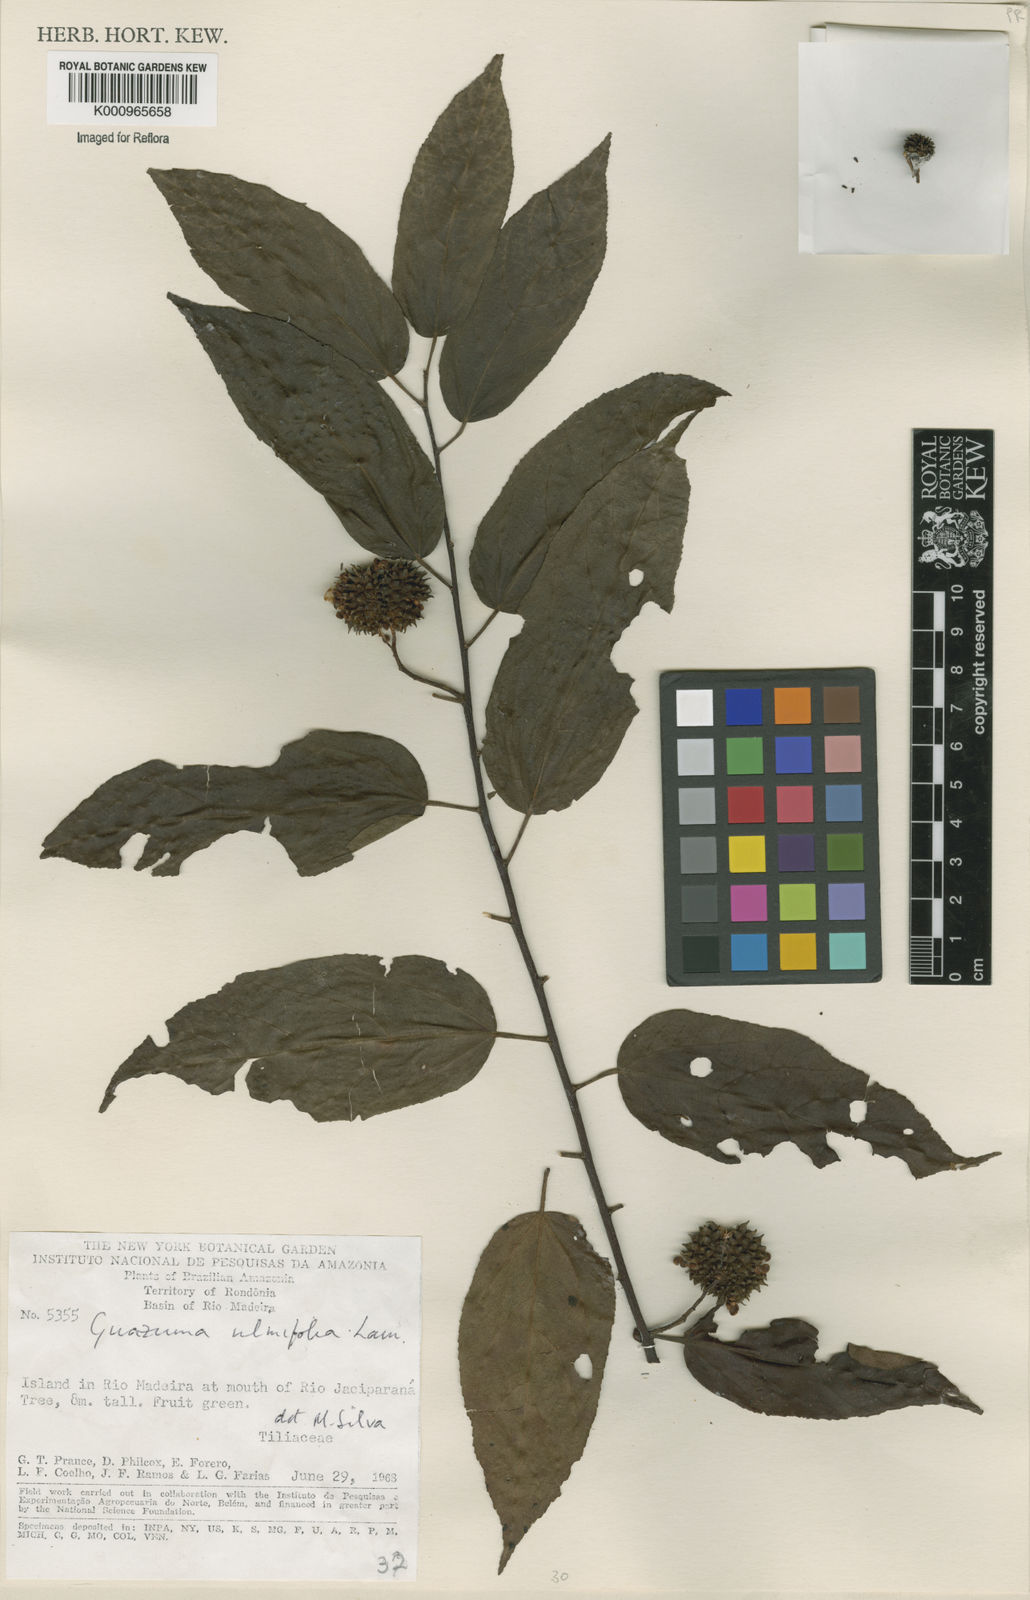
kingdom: Plantae
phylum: Tracheophyta
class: Magnoliopsida
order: Malvales
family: Malvaceae
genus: Guazuma
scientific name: Guazuma ulmifolia
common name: Bastard-cedar
